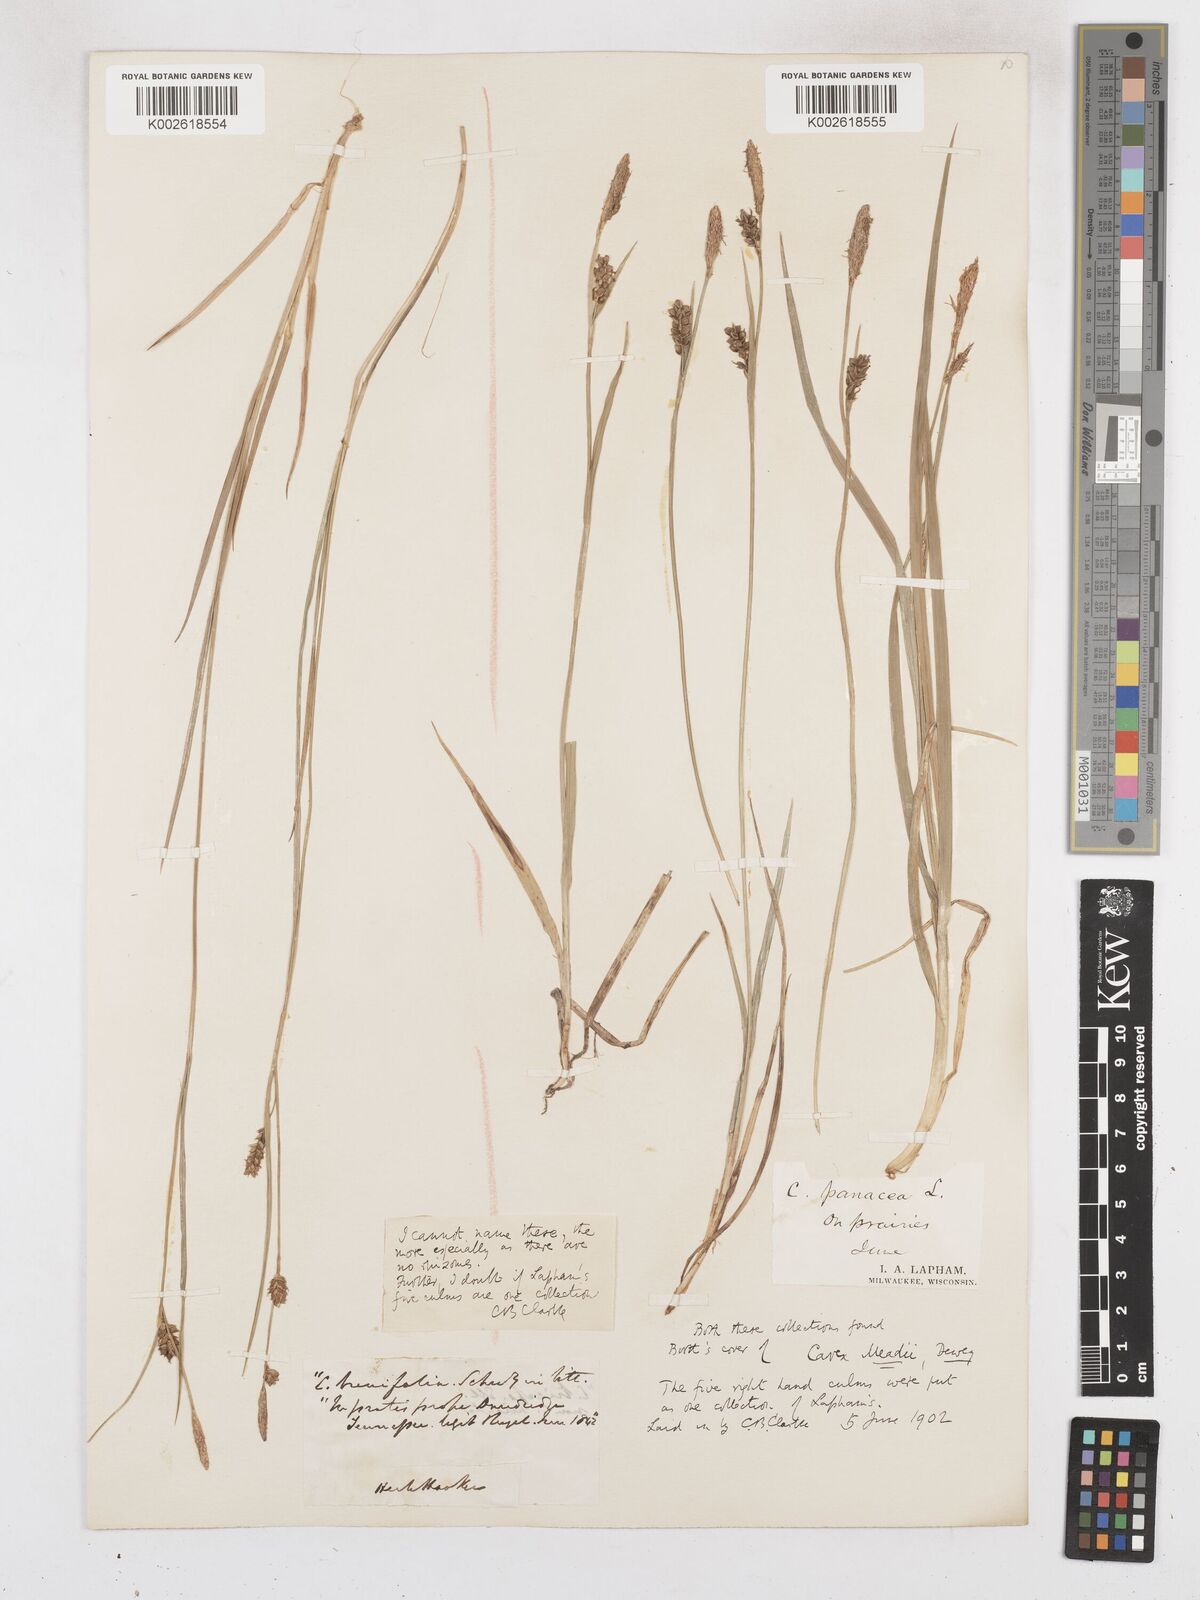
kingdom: Plantae
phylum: Tracheophyta
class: Liliopsida
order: Poales
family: Cyperaceae
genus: Carex
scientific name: Carex meadii
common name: Mead's sedge
